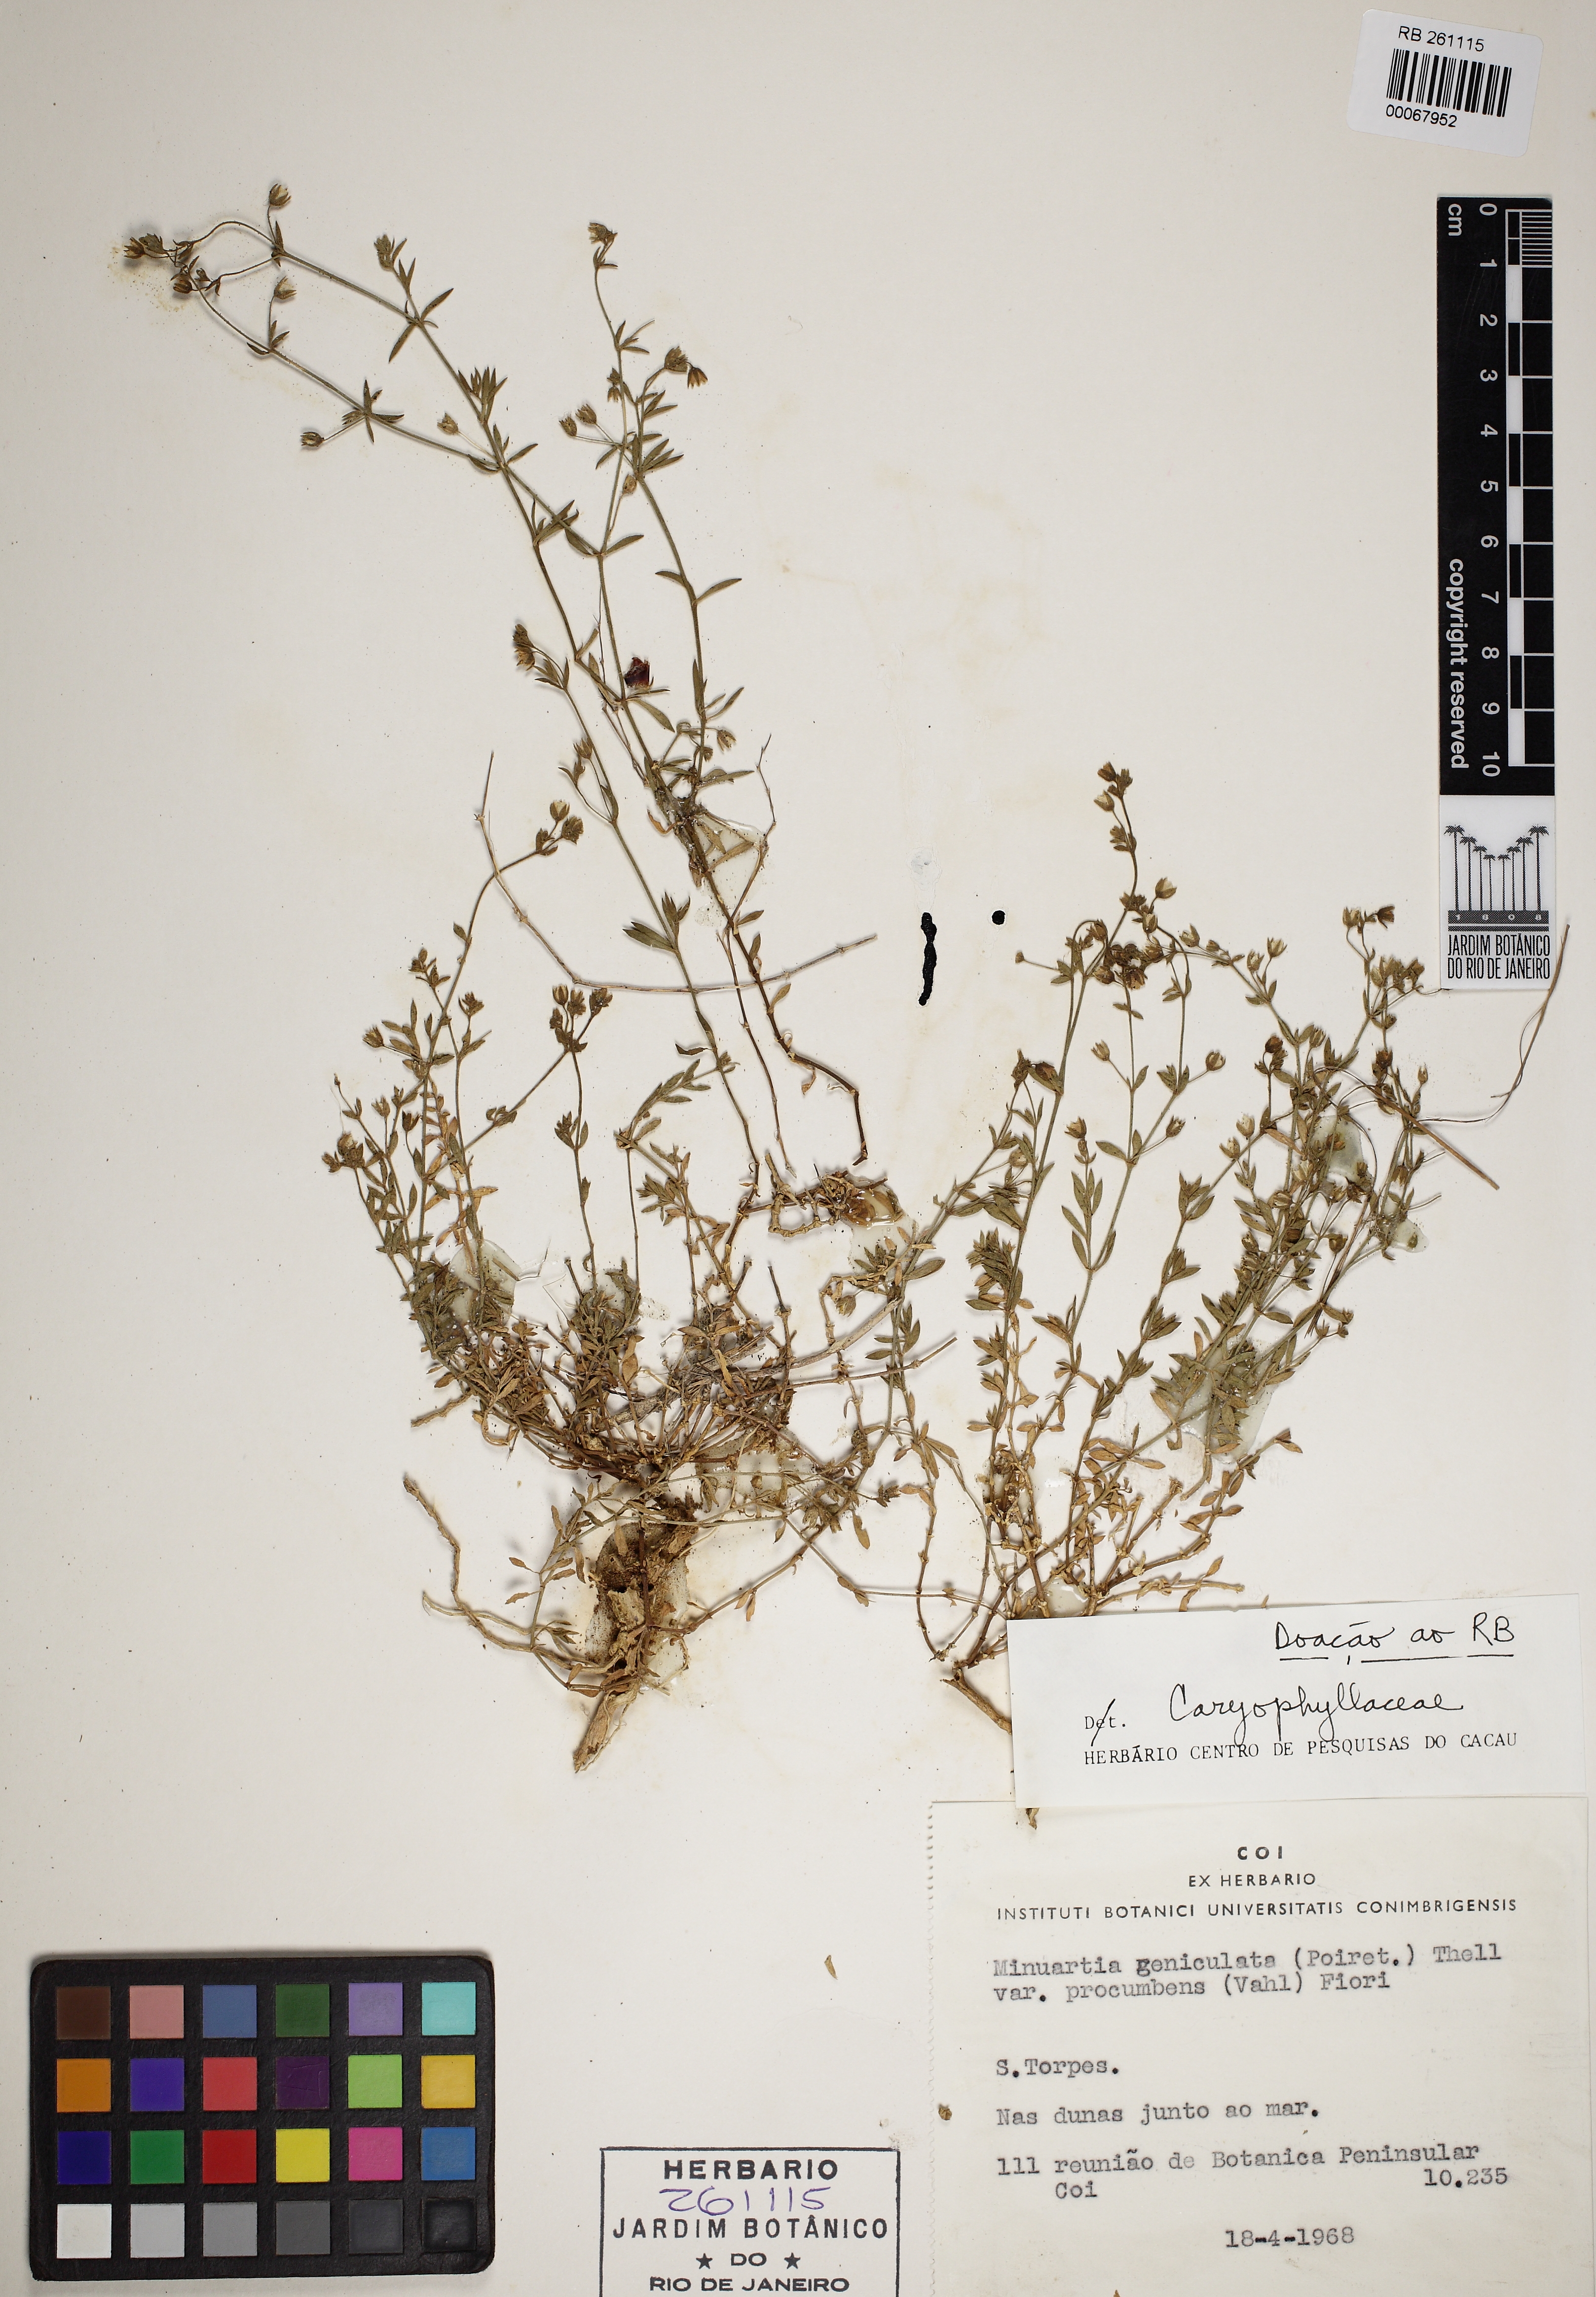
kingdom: Plantae
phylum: Tracheophyta
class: Magnoliopsida
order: Caryophyllales
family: Caryophyllaceae
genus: Rhodalsine
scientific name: Rhodalsine geniculata
